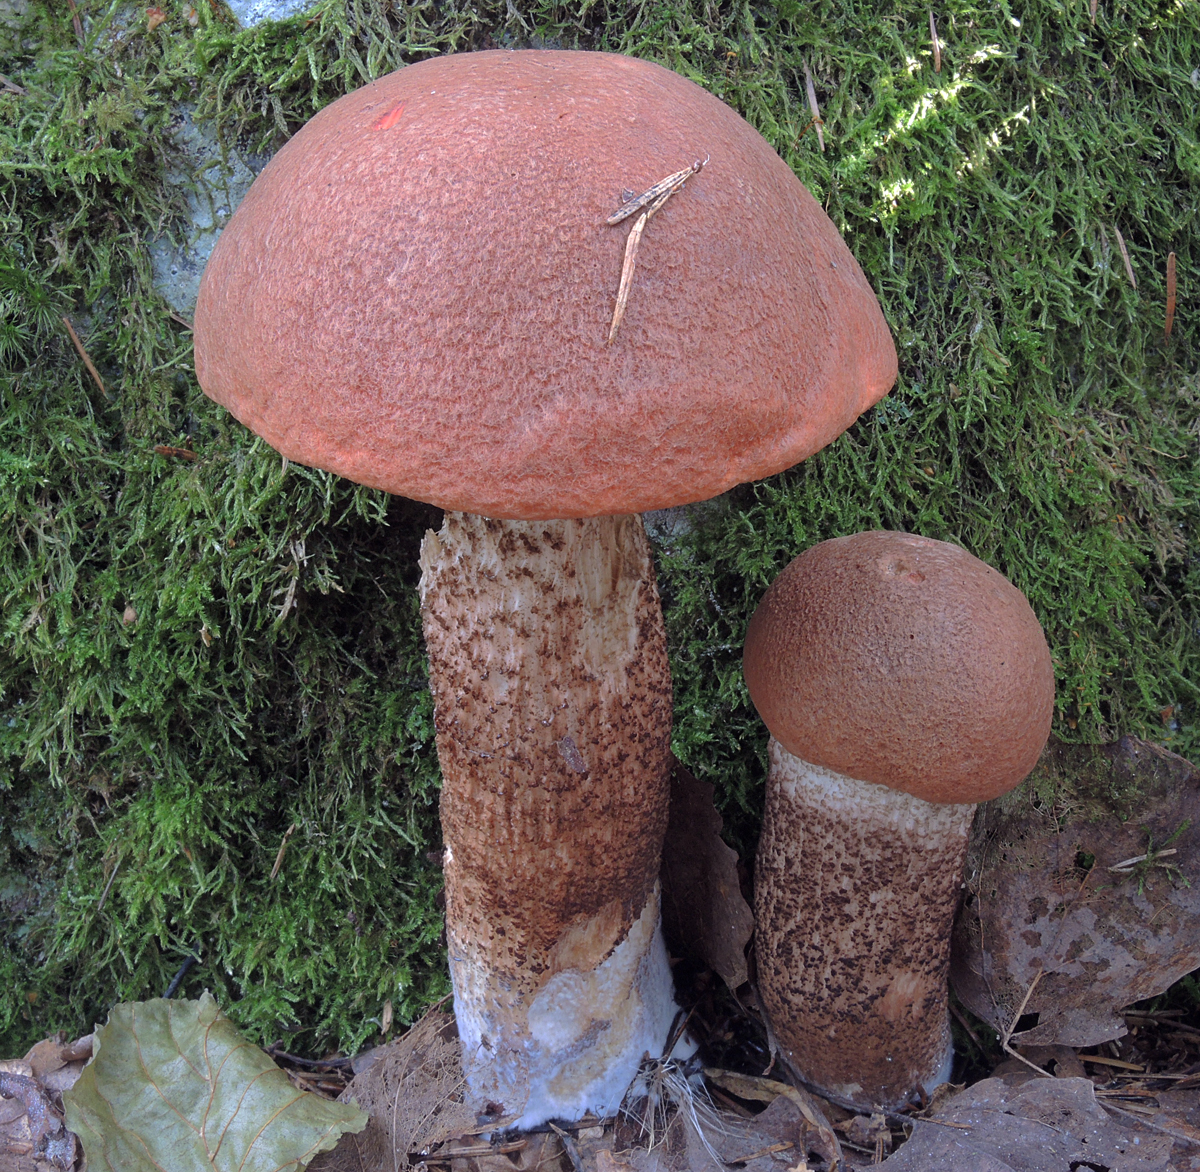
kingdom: Fungi
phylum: Basidiomycota
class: Agaricomycetes
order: Boletales
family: Boletaceae
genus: Leccinum
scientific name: Leccinum aurantiacum
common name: rustrød skælrørhat
